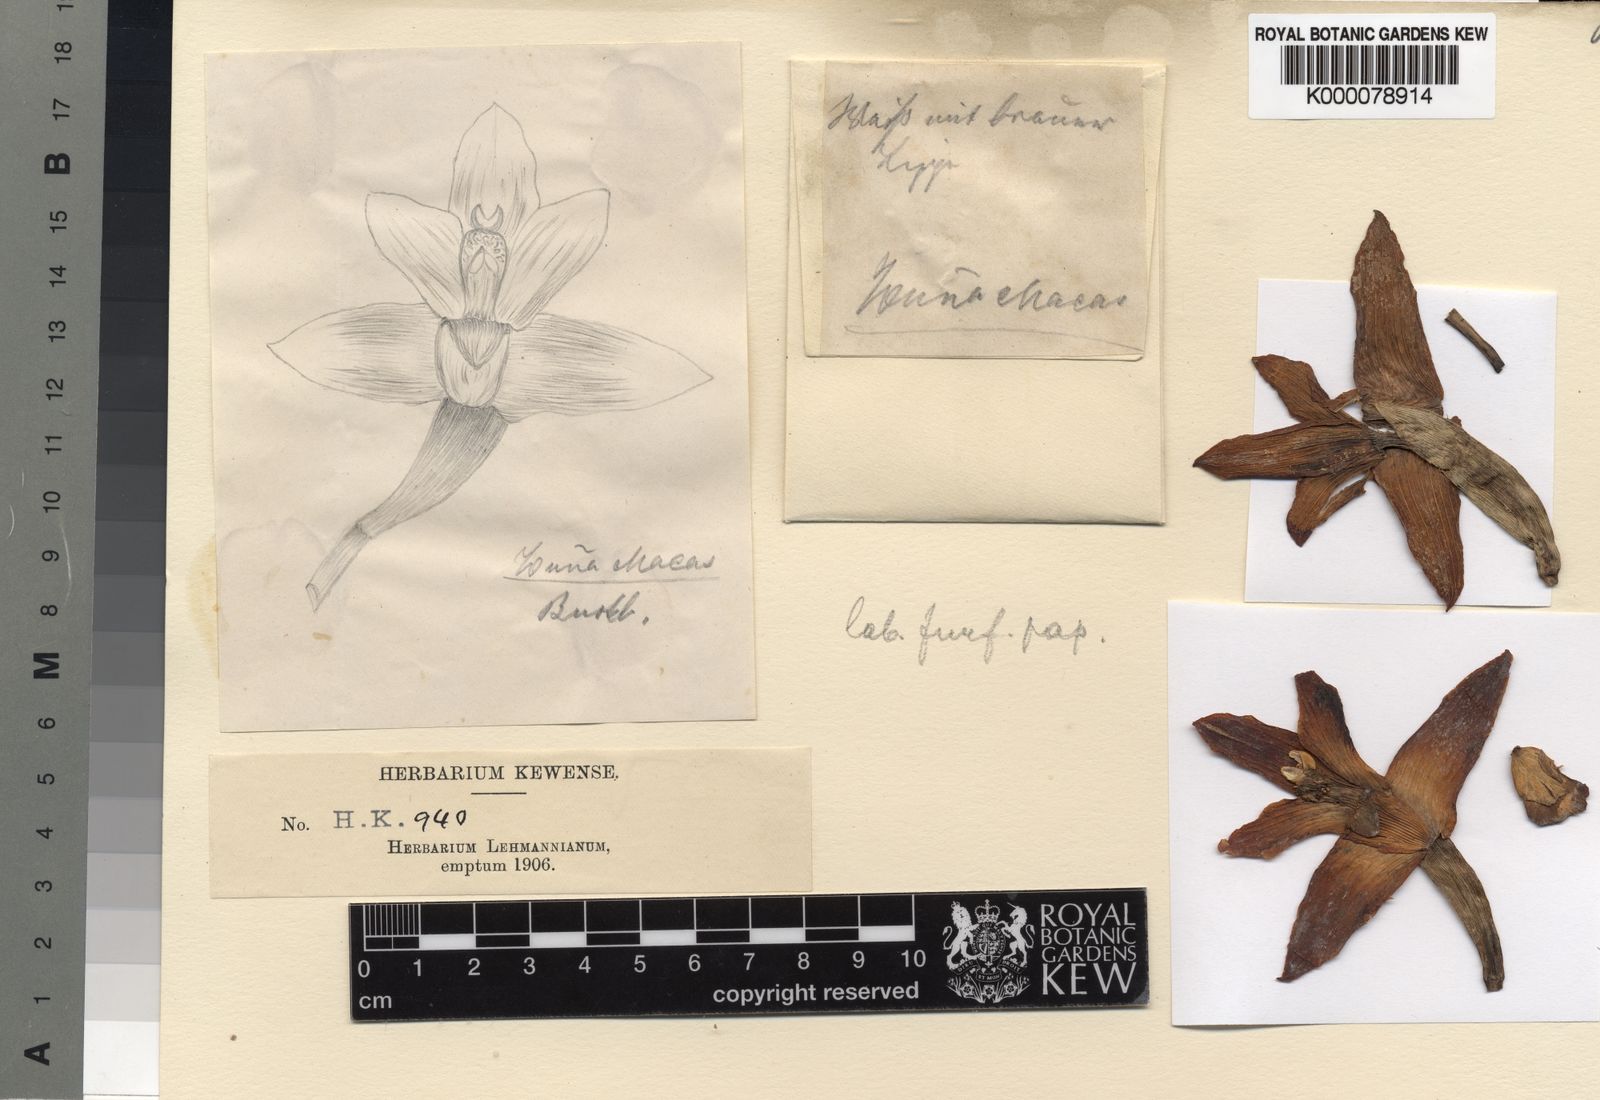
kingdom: Plantae
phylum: Tracheophyta
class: Liliopsida
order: Asparagales
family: Orchidaceae
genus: Maxillaria
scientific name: Maxillaria
